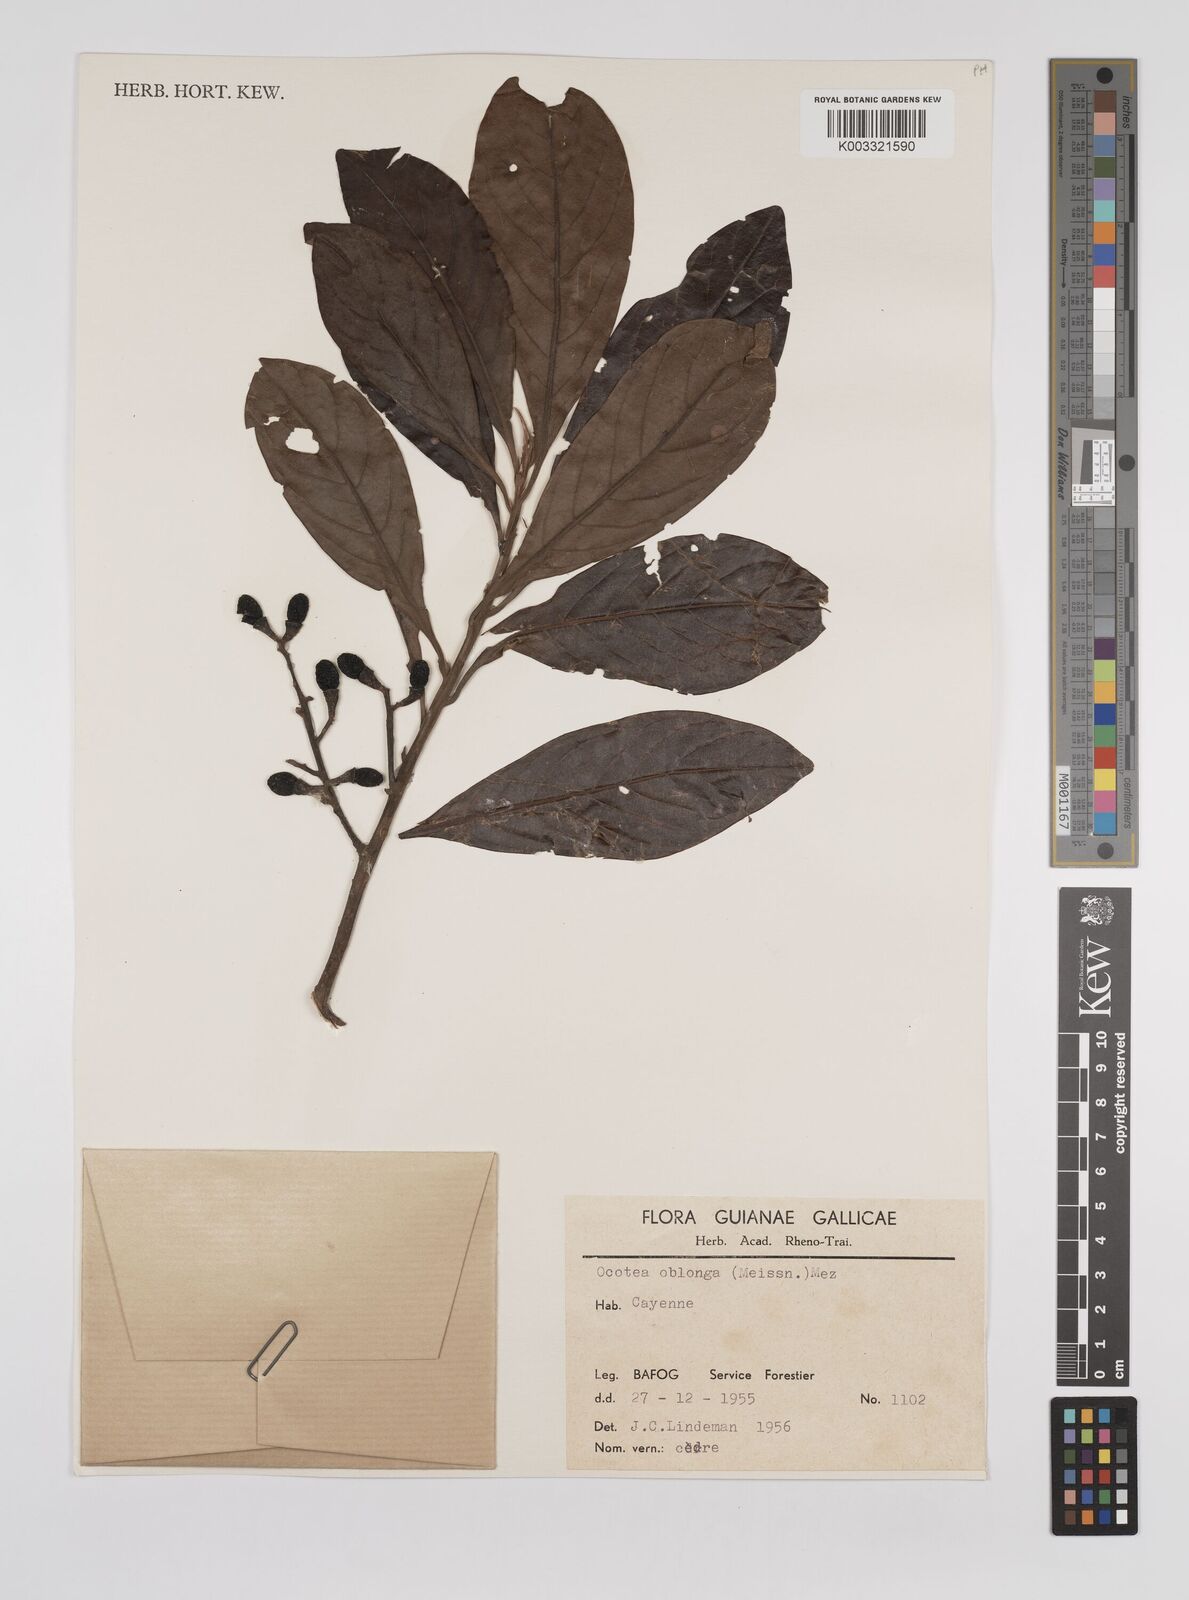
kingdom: Plantae
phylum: Tracheophyta
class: Magnoliopsida
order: Laurales
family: Lauraceae
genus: Ocotea
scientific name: Ocotea oblonga
